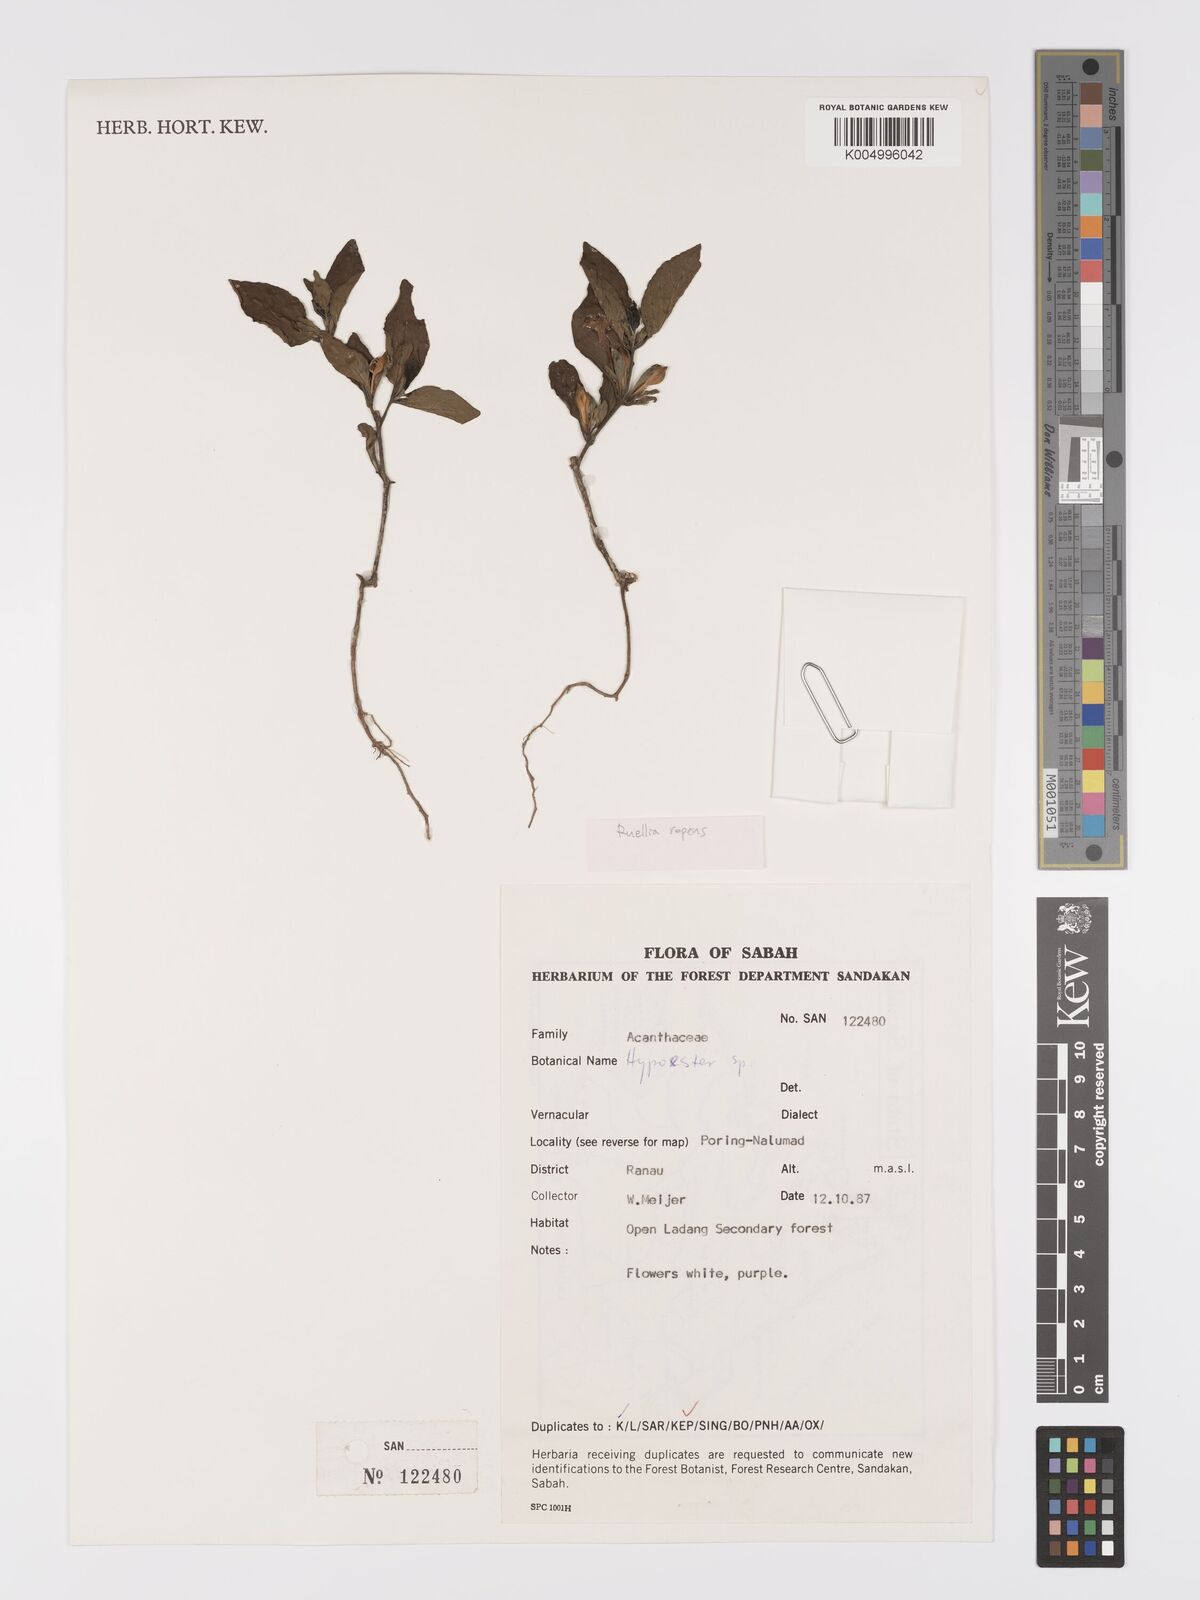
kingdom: Plantae
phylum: Tracheophyta
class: Magnoliopsida
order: Lamiales
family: Acanthaceae
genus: Ruellia
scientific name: Ruellia
